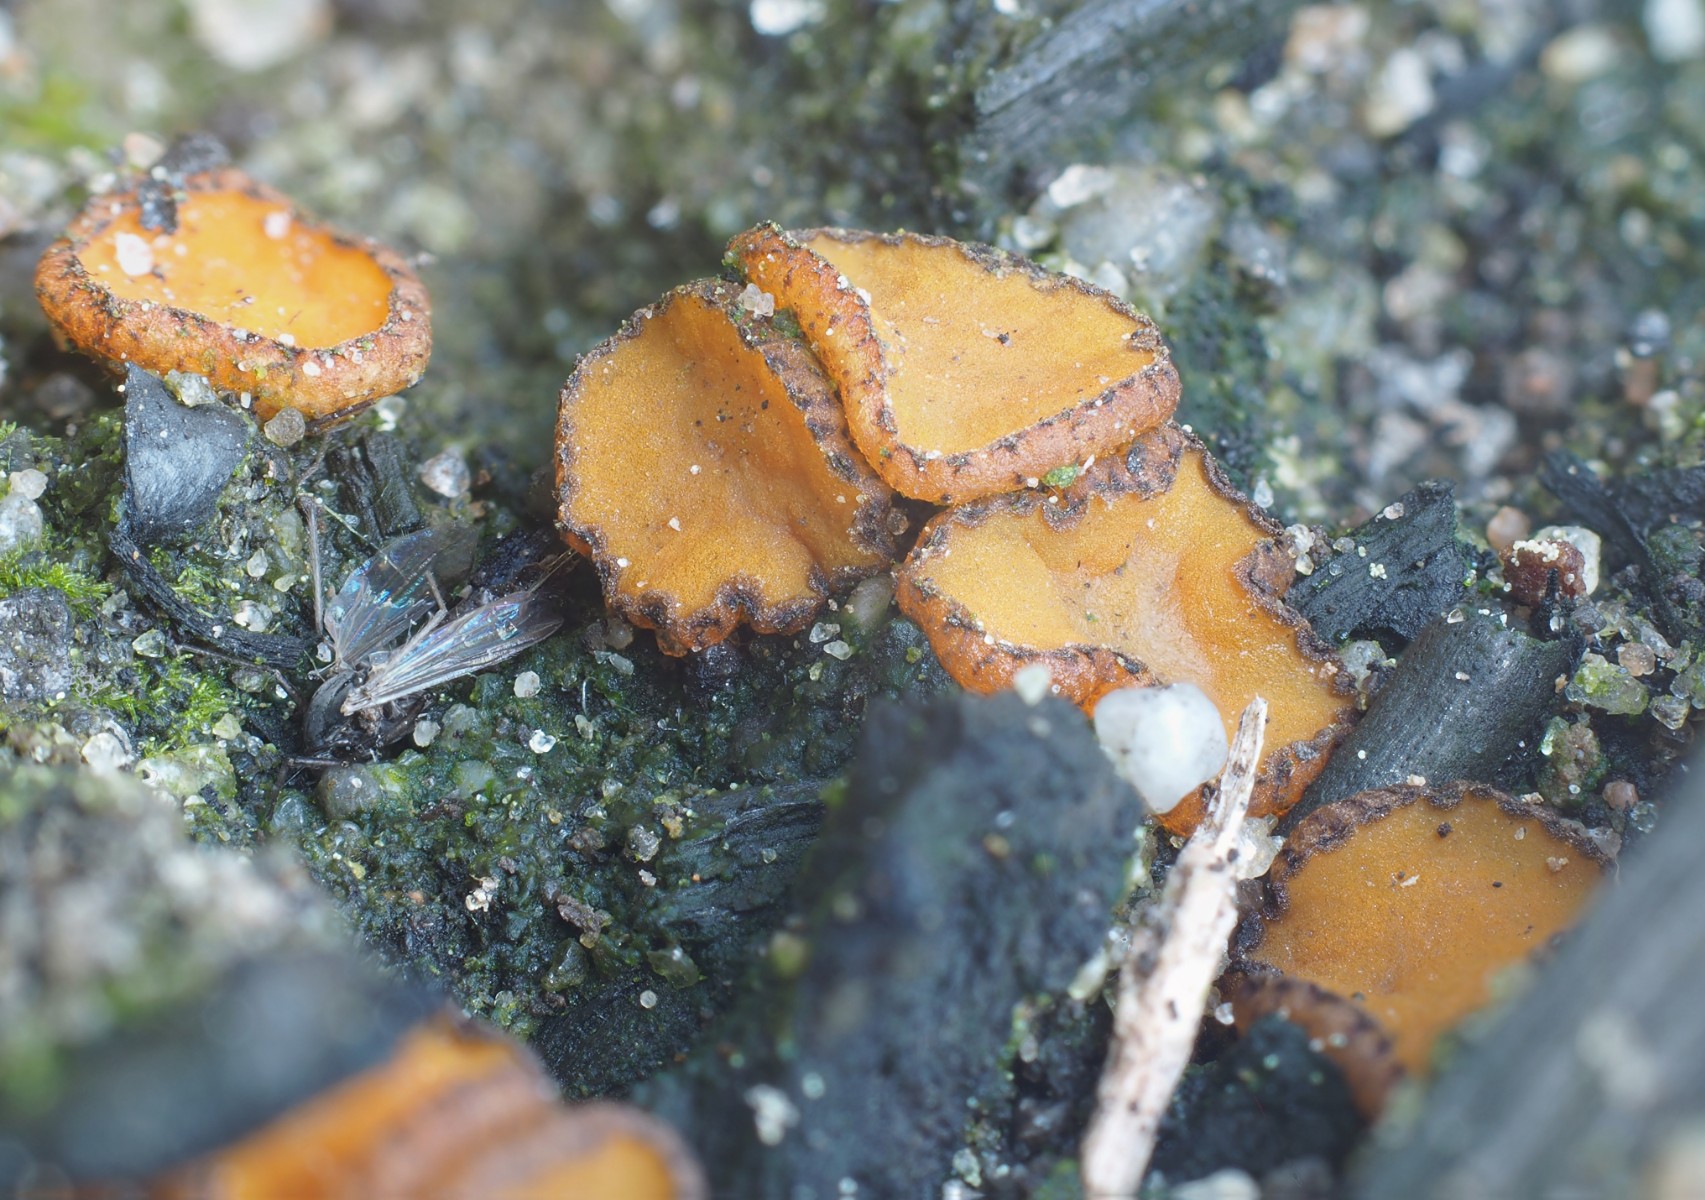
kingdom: Fungi
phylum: Ascomycota
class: Pezizomycetes
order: Pezizales
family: Pyronemataceae
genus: Anthracobia
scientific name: Anthracobia
